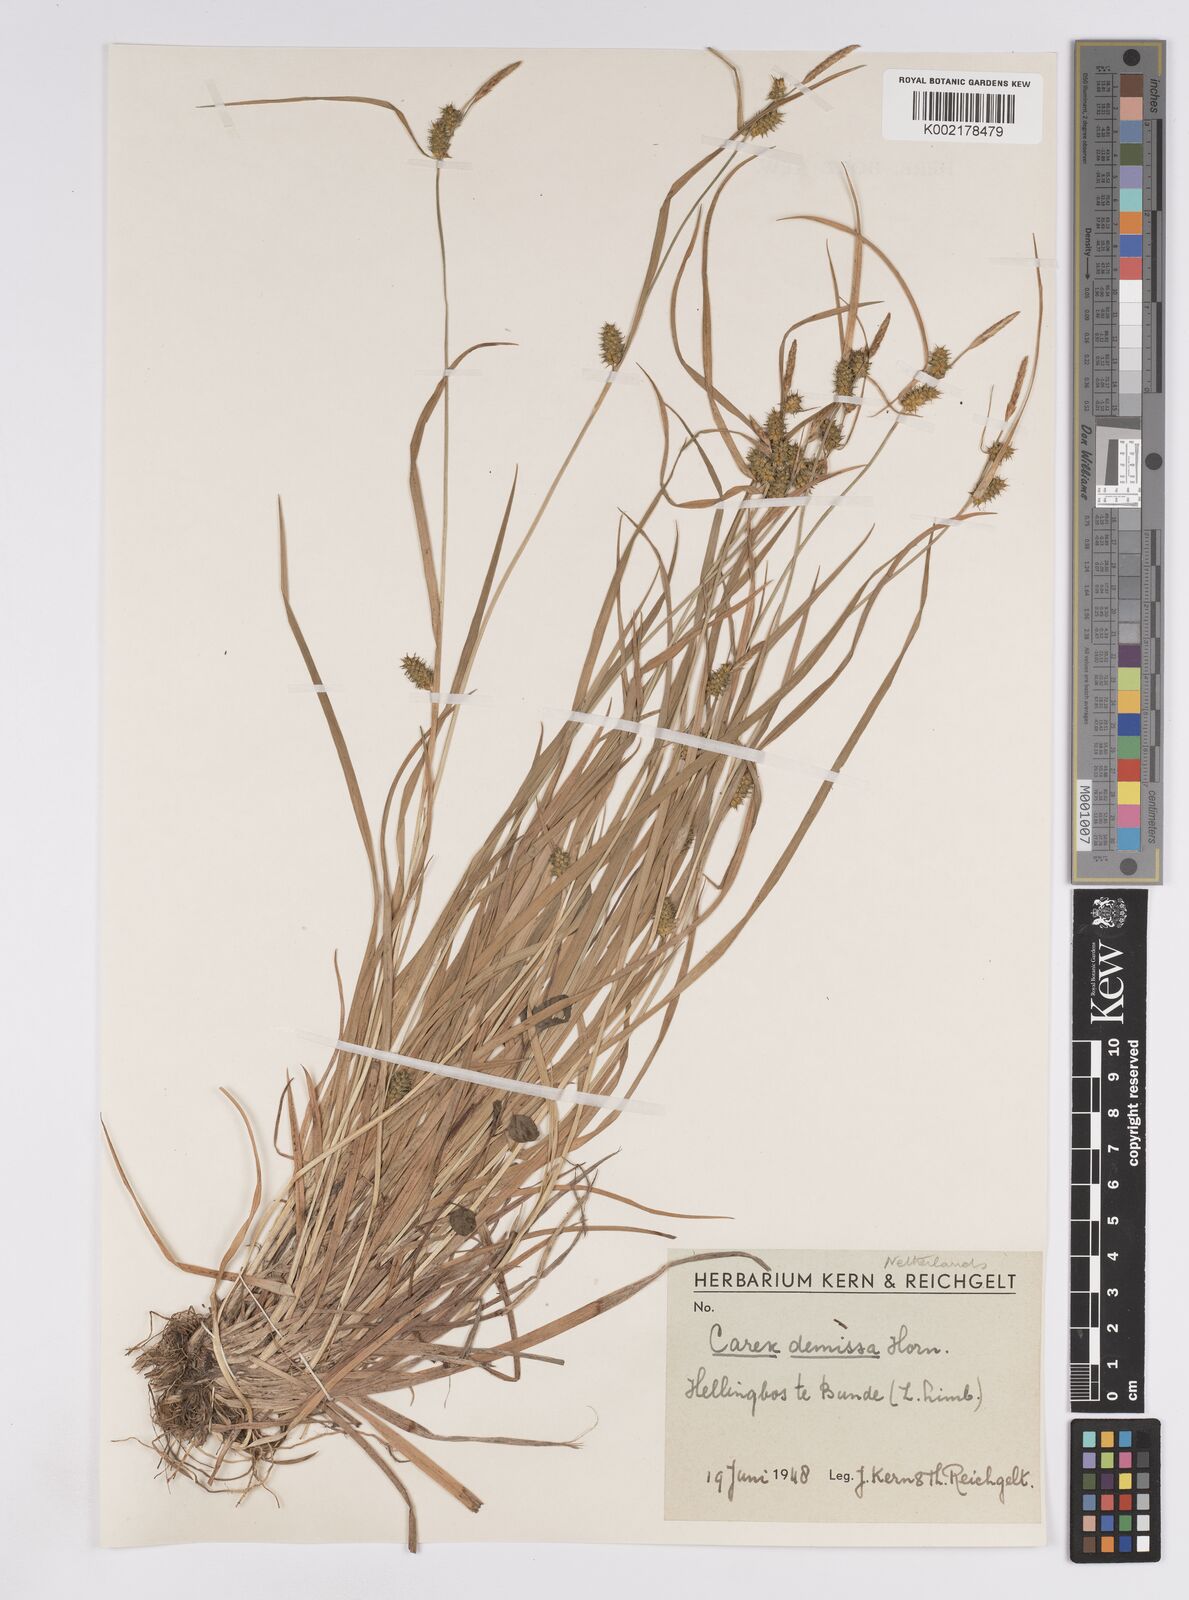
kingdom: Plantae
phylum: Tracheophyta
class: Liliopsida
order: Poales
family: Cyperaceae
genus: Carex
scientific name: Carex demissa
